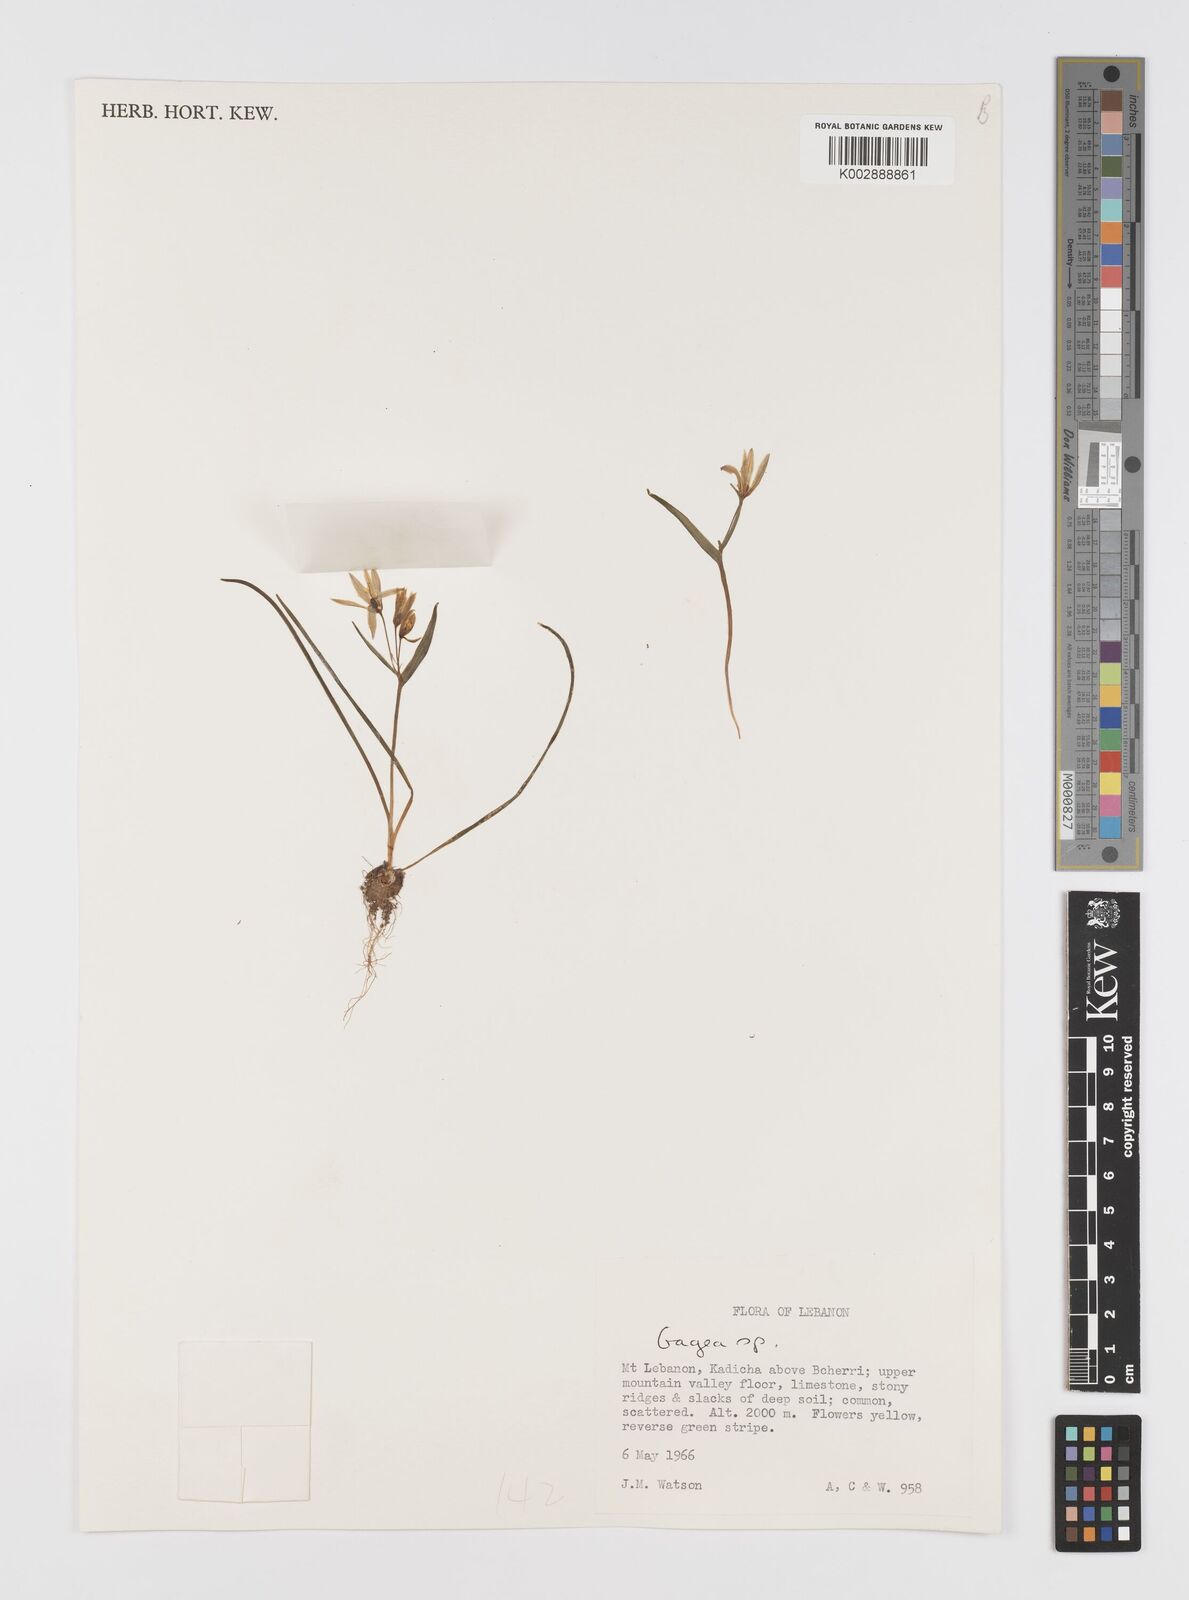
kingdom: Plantae
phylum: Tracheophyta
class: Liliopsida
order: Liliales
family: Liliaceae
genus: Gagea
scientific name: Gagea
